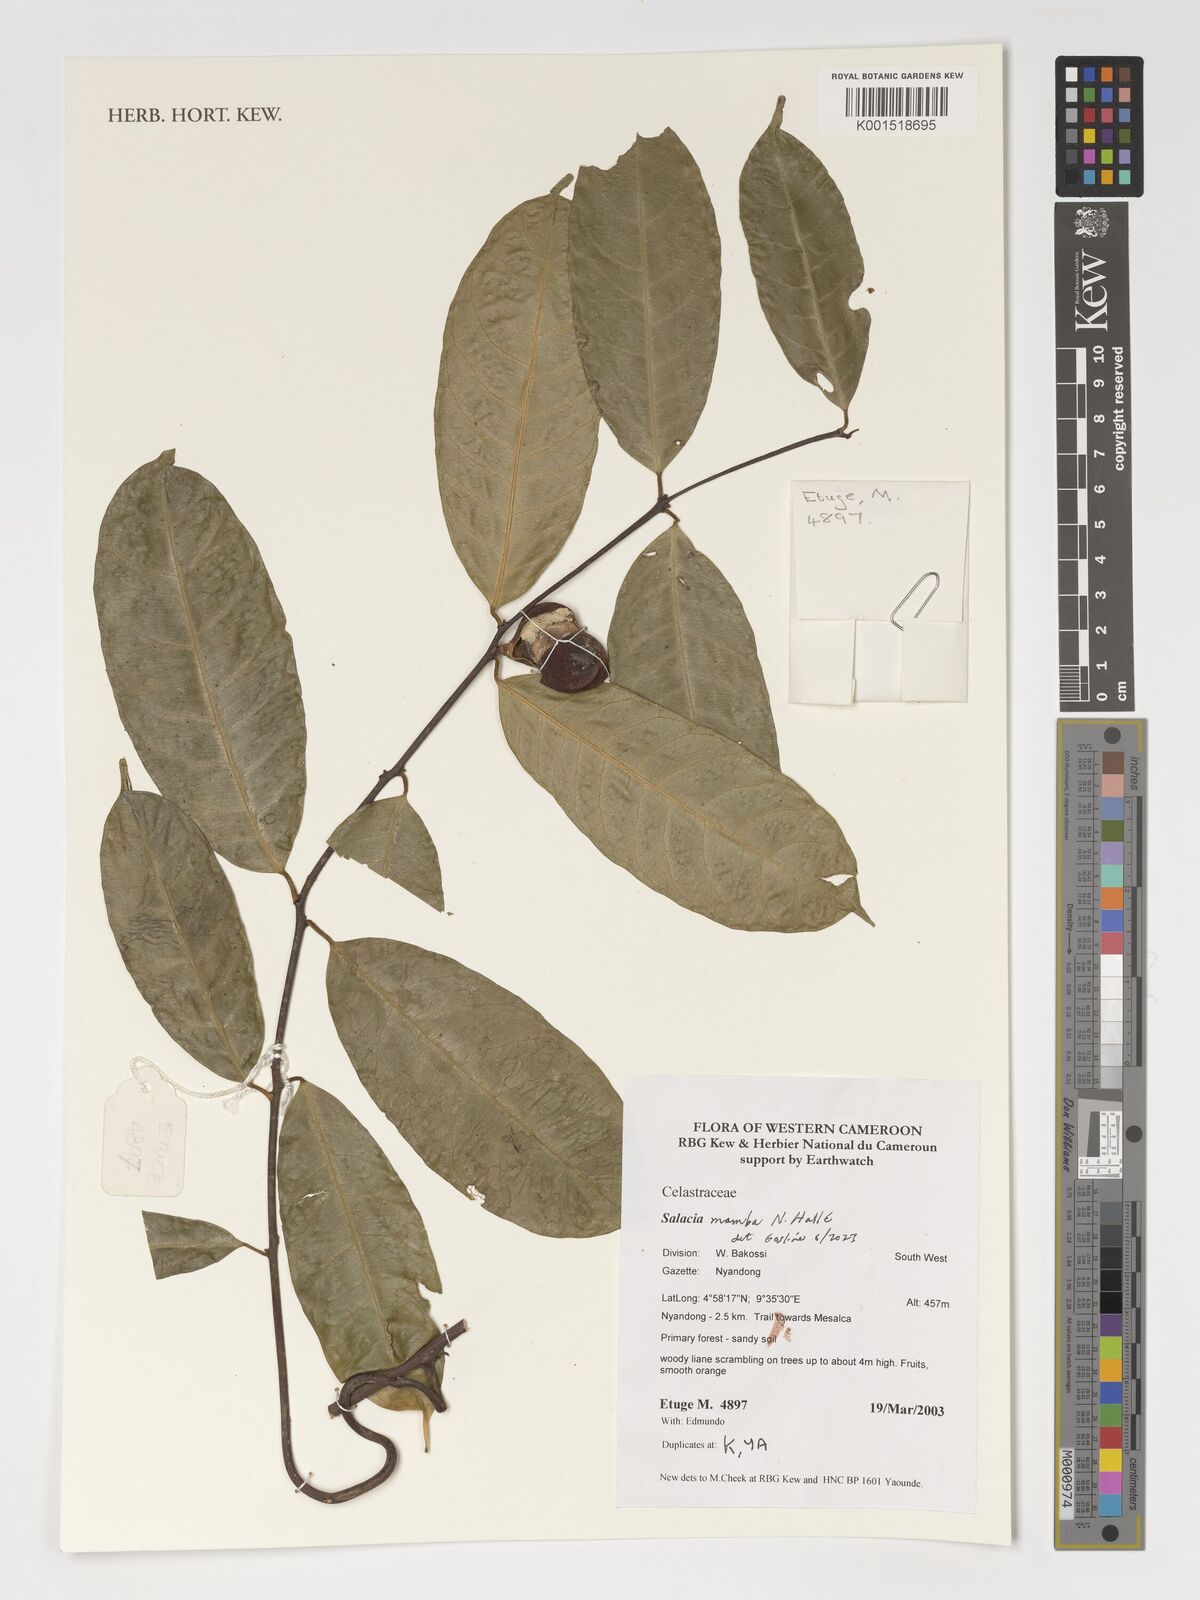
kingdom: Plantae
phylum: Tracheophyta
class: Magnoliopsida
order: Celastrales
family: Celastraceae
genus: Salacia
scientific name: Salacia mamba
